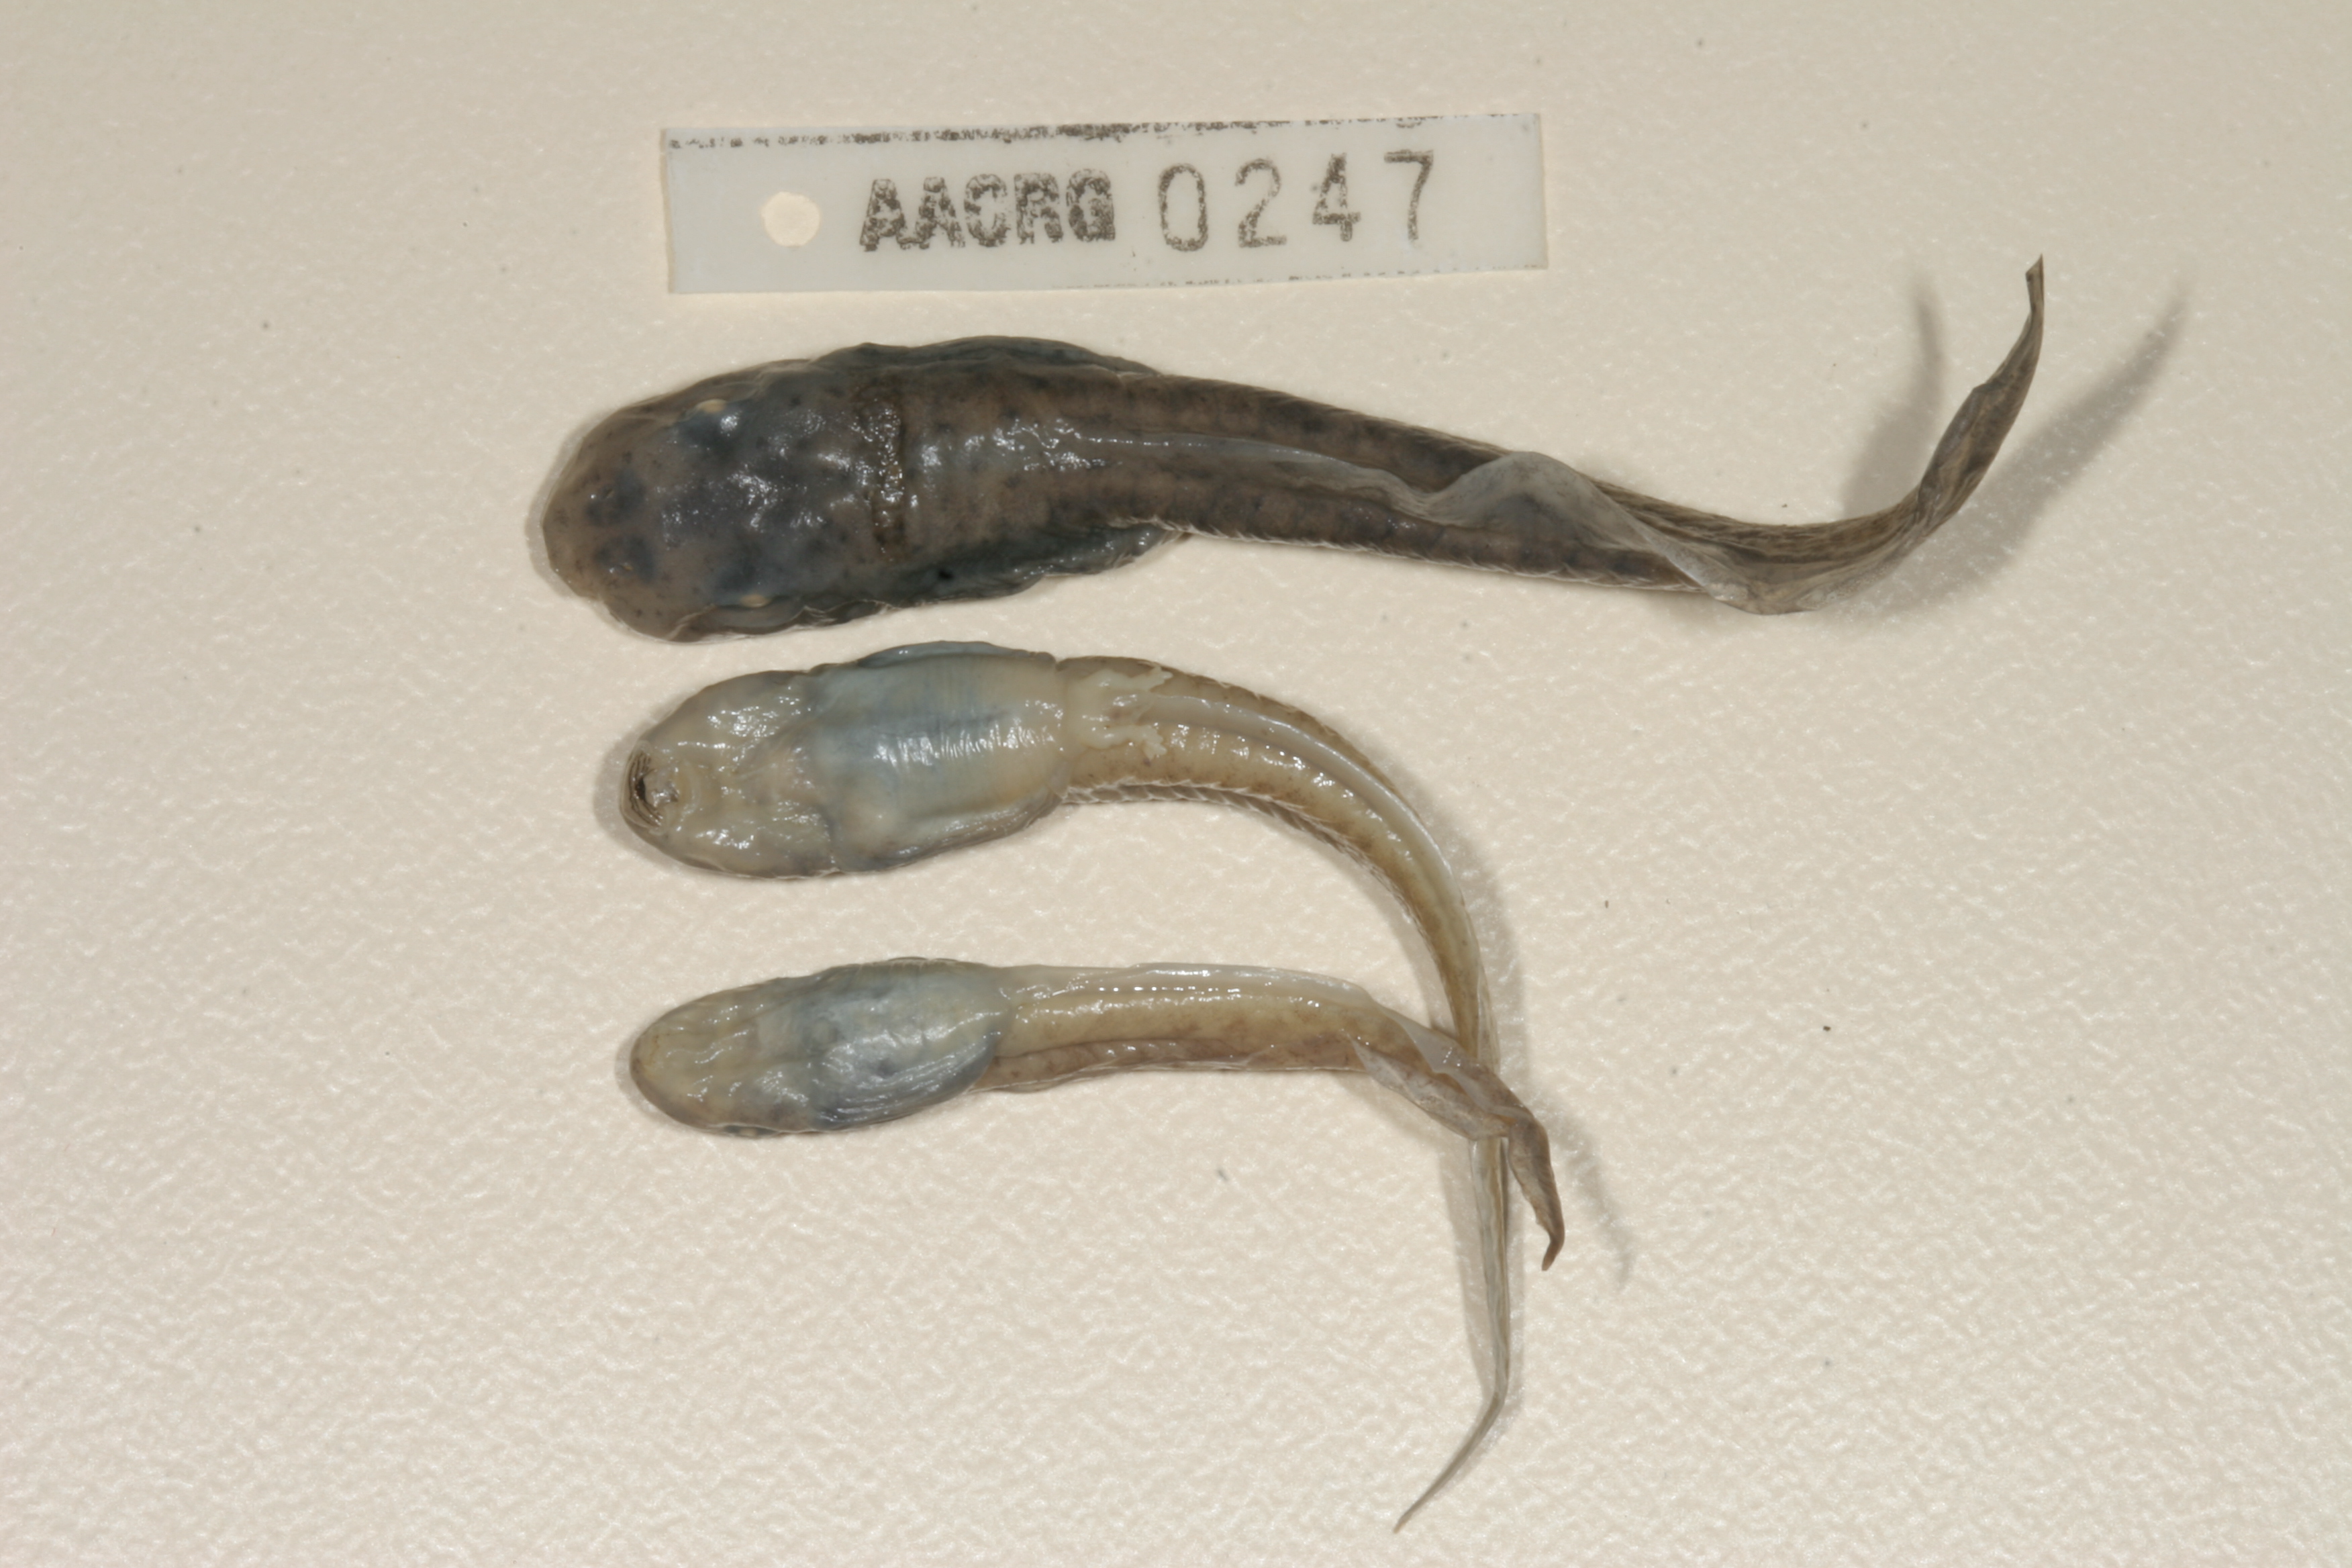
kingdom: Animalia
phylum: Chordata
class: Amphibia
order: Anura
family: Pyxicephalidae
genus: Amietia
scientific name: Amietia fuscigula
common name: Cape rana
